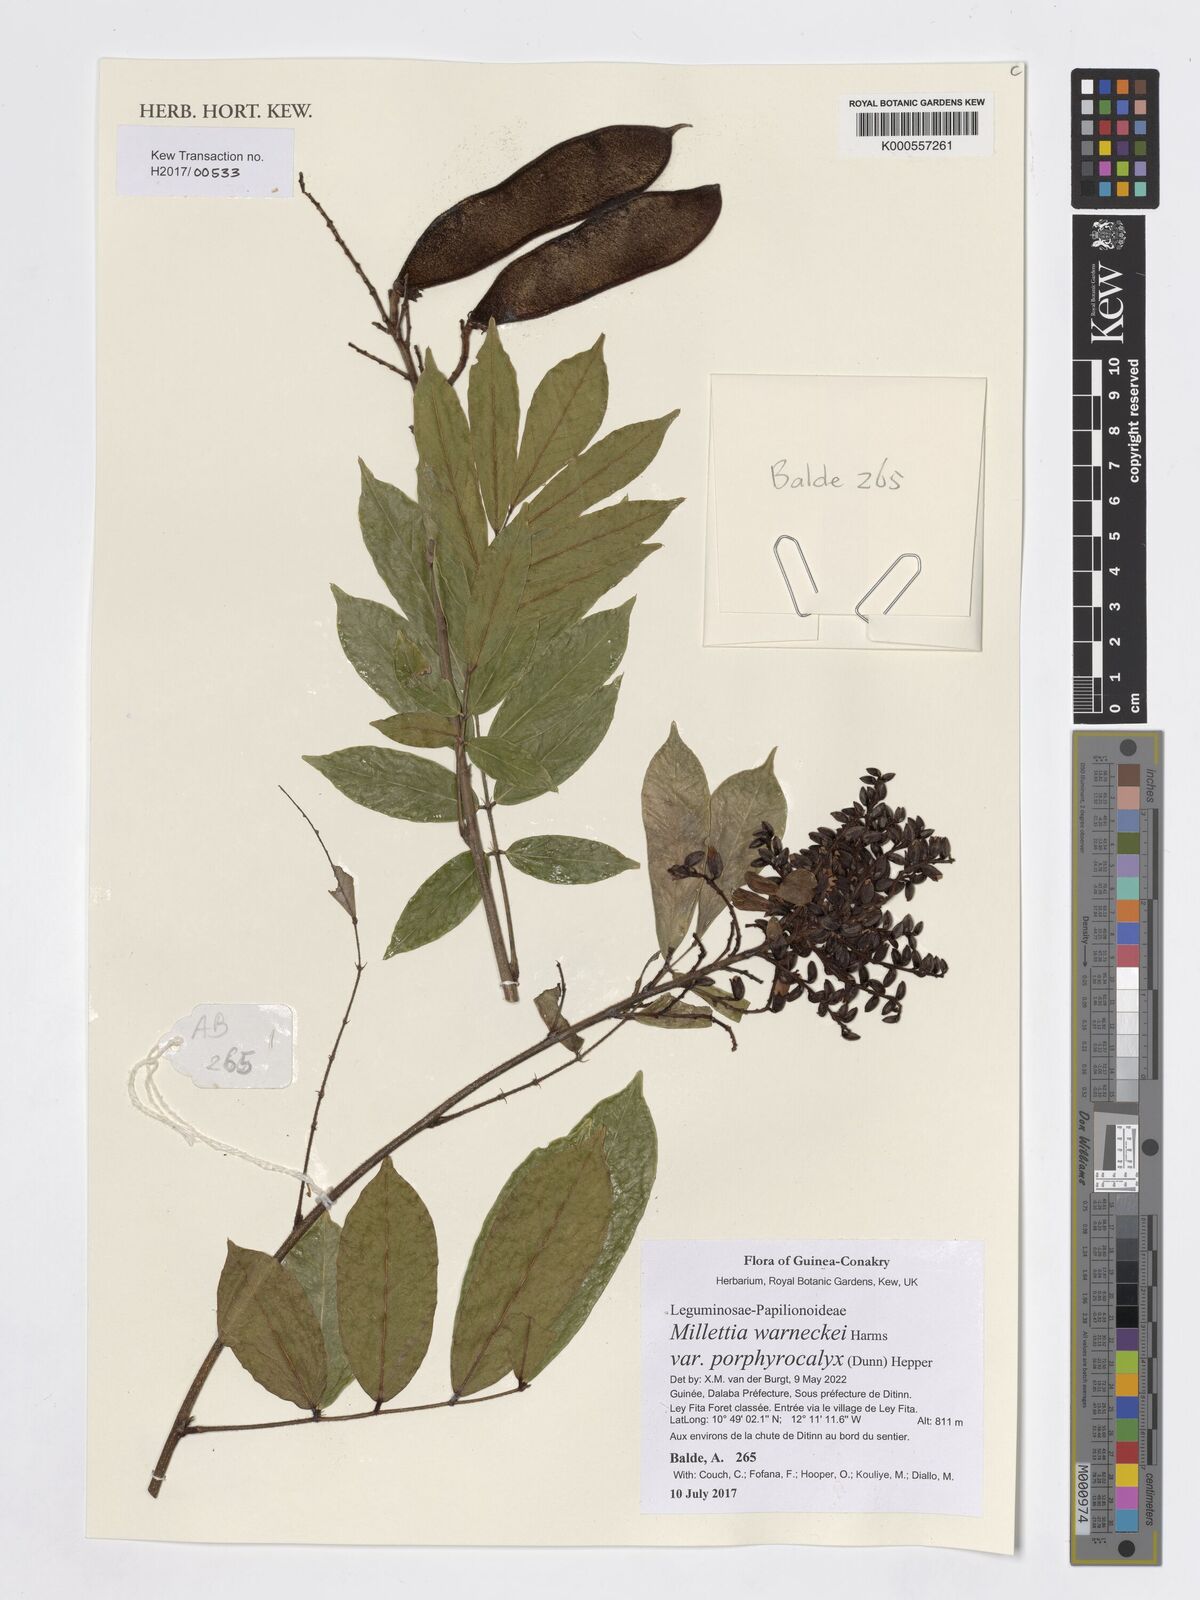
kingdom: Plantae
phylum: Tracheophyta
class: Magnoliopsida
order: Fabales
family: Fabaceae
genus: Millettia
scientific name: Millettia warneckei
